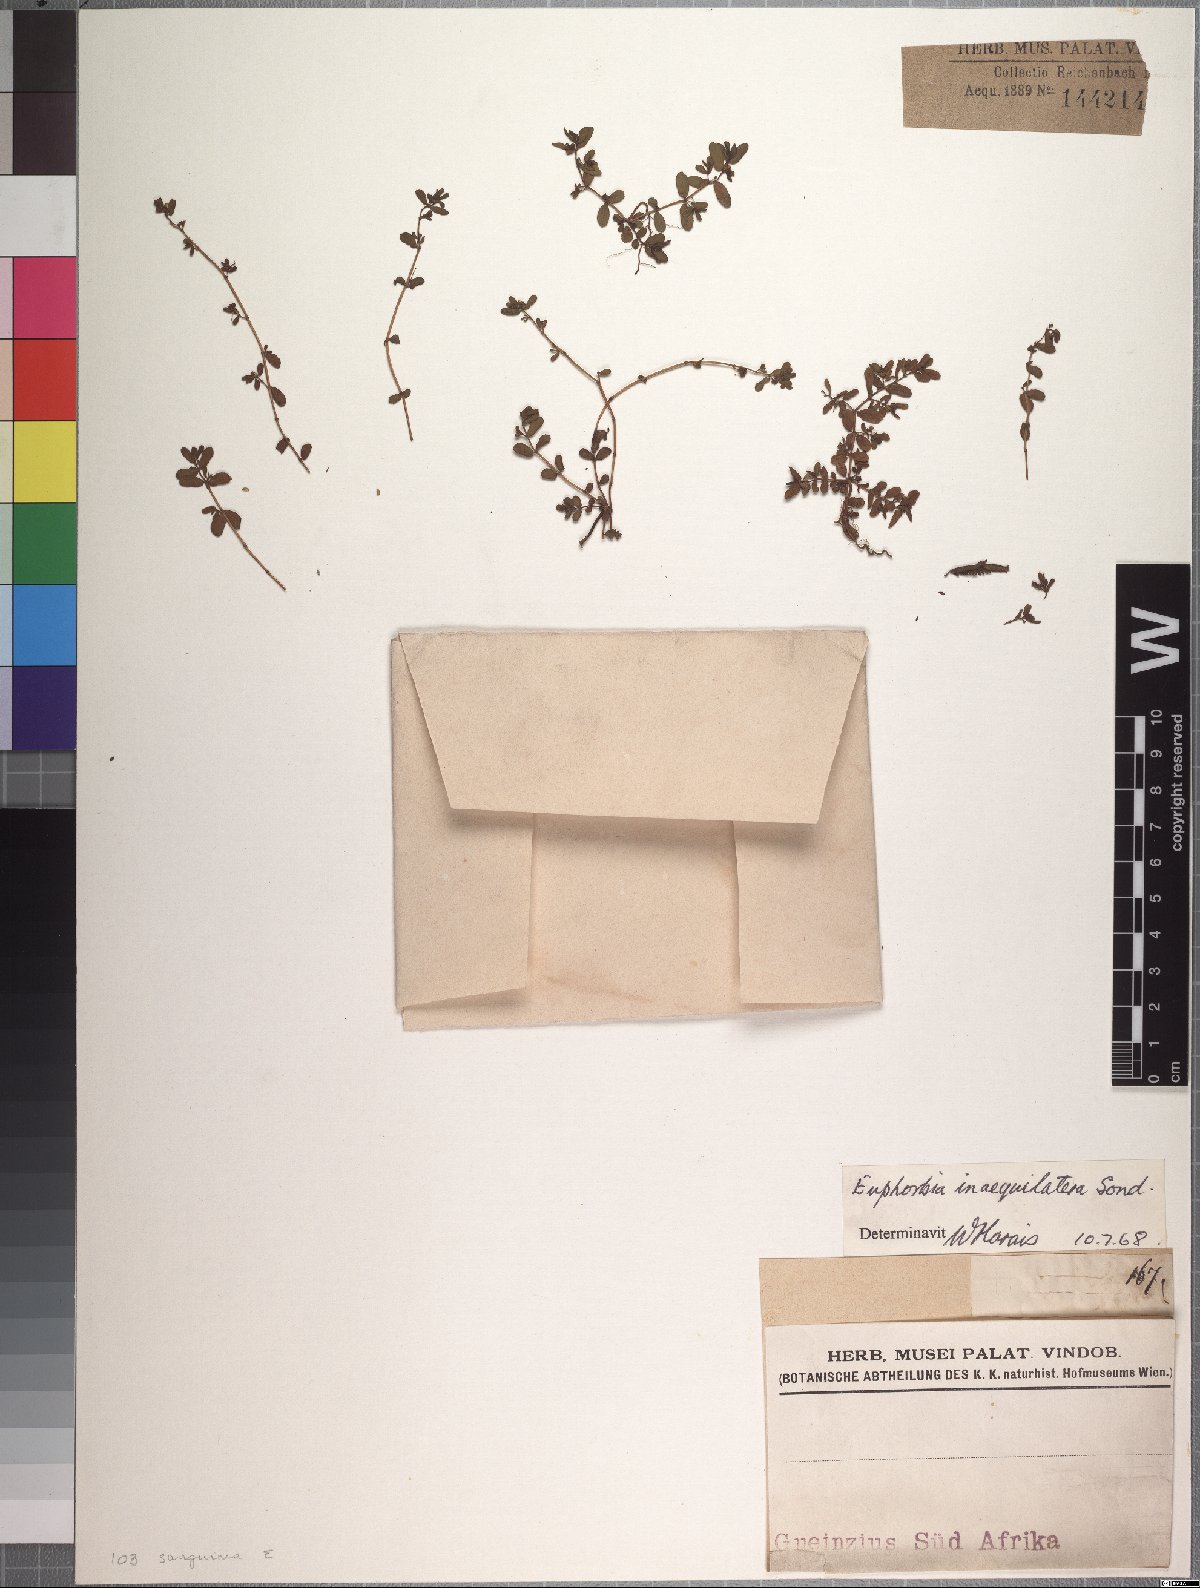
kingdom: Plantae
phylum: Tracheophyta
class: Magnoliopsida
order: Malpighiales
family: Euphorbiaceae
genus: Euphorbia
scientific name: Euphorbia inaequilatera
